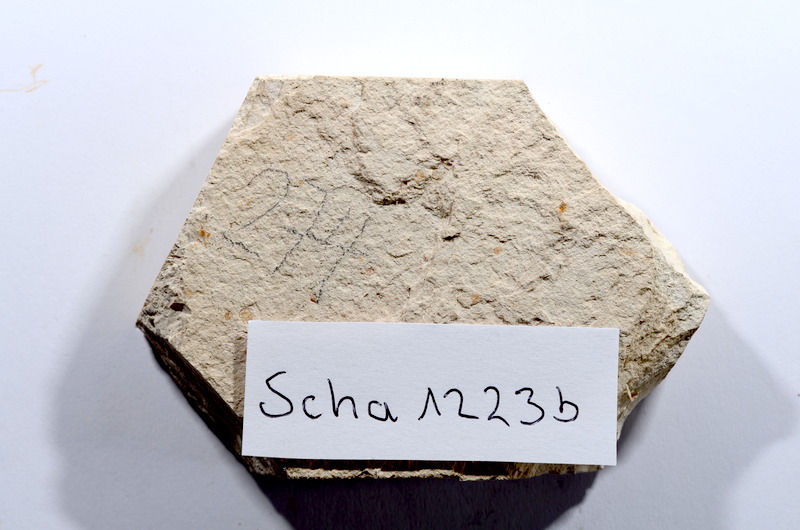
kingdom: Animalia
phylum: Chordata
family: Ascalaboidae
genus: Tharsis
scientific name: Tharsis dubius
